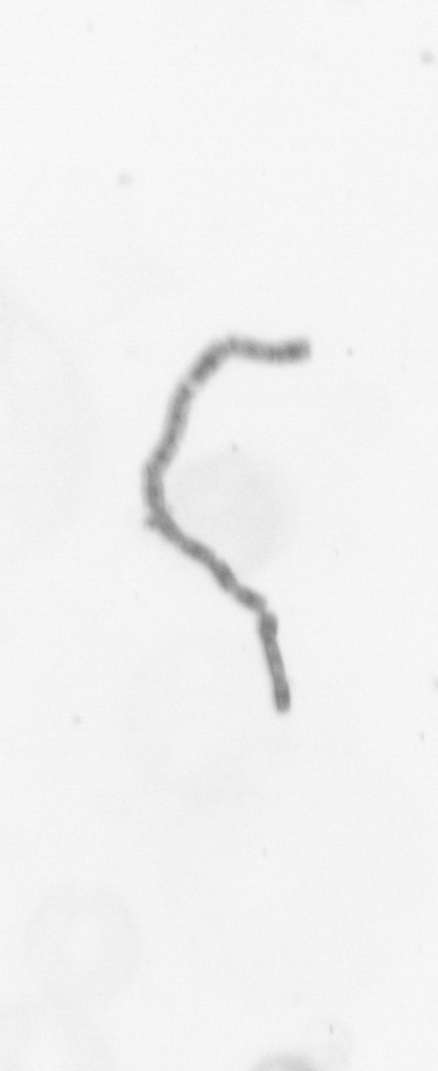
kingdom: Chromista
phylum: Ochrophyta
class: Bacillariophyceae
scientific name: Bacillariophyceae
